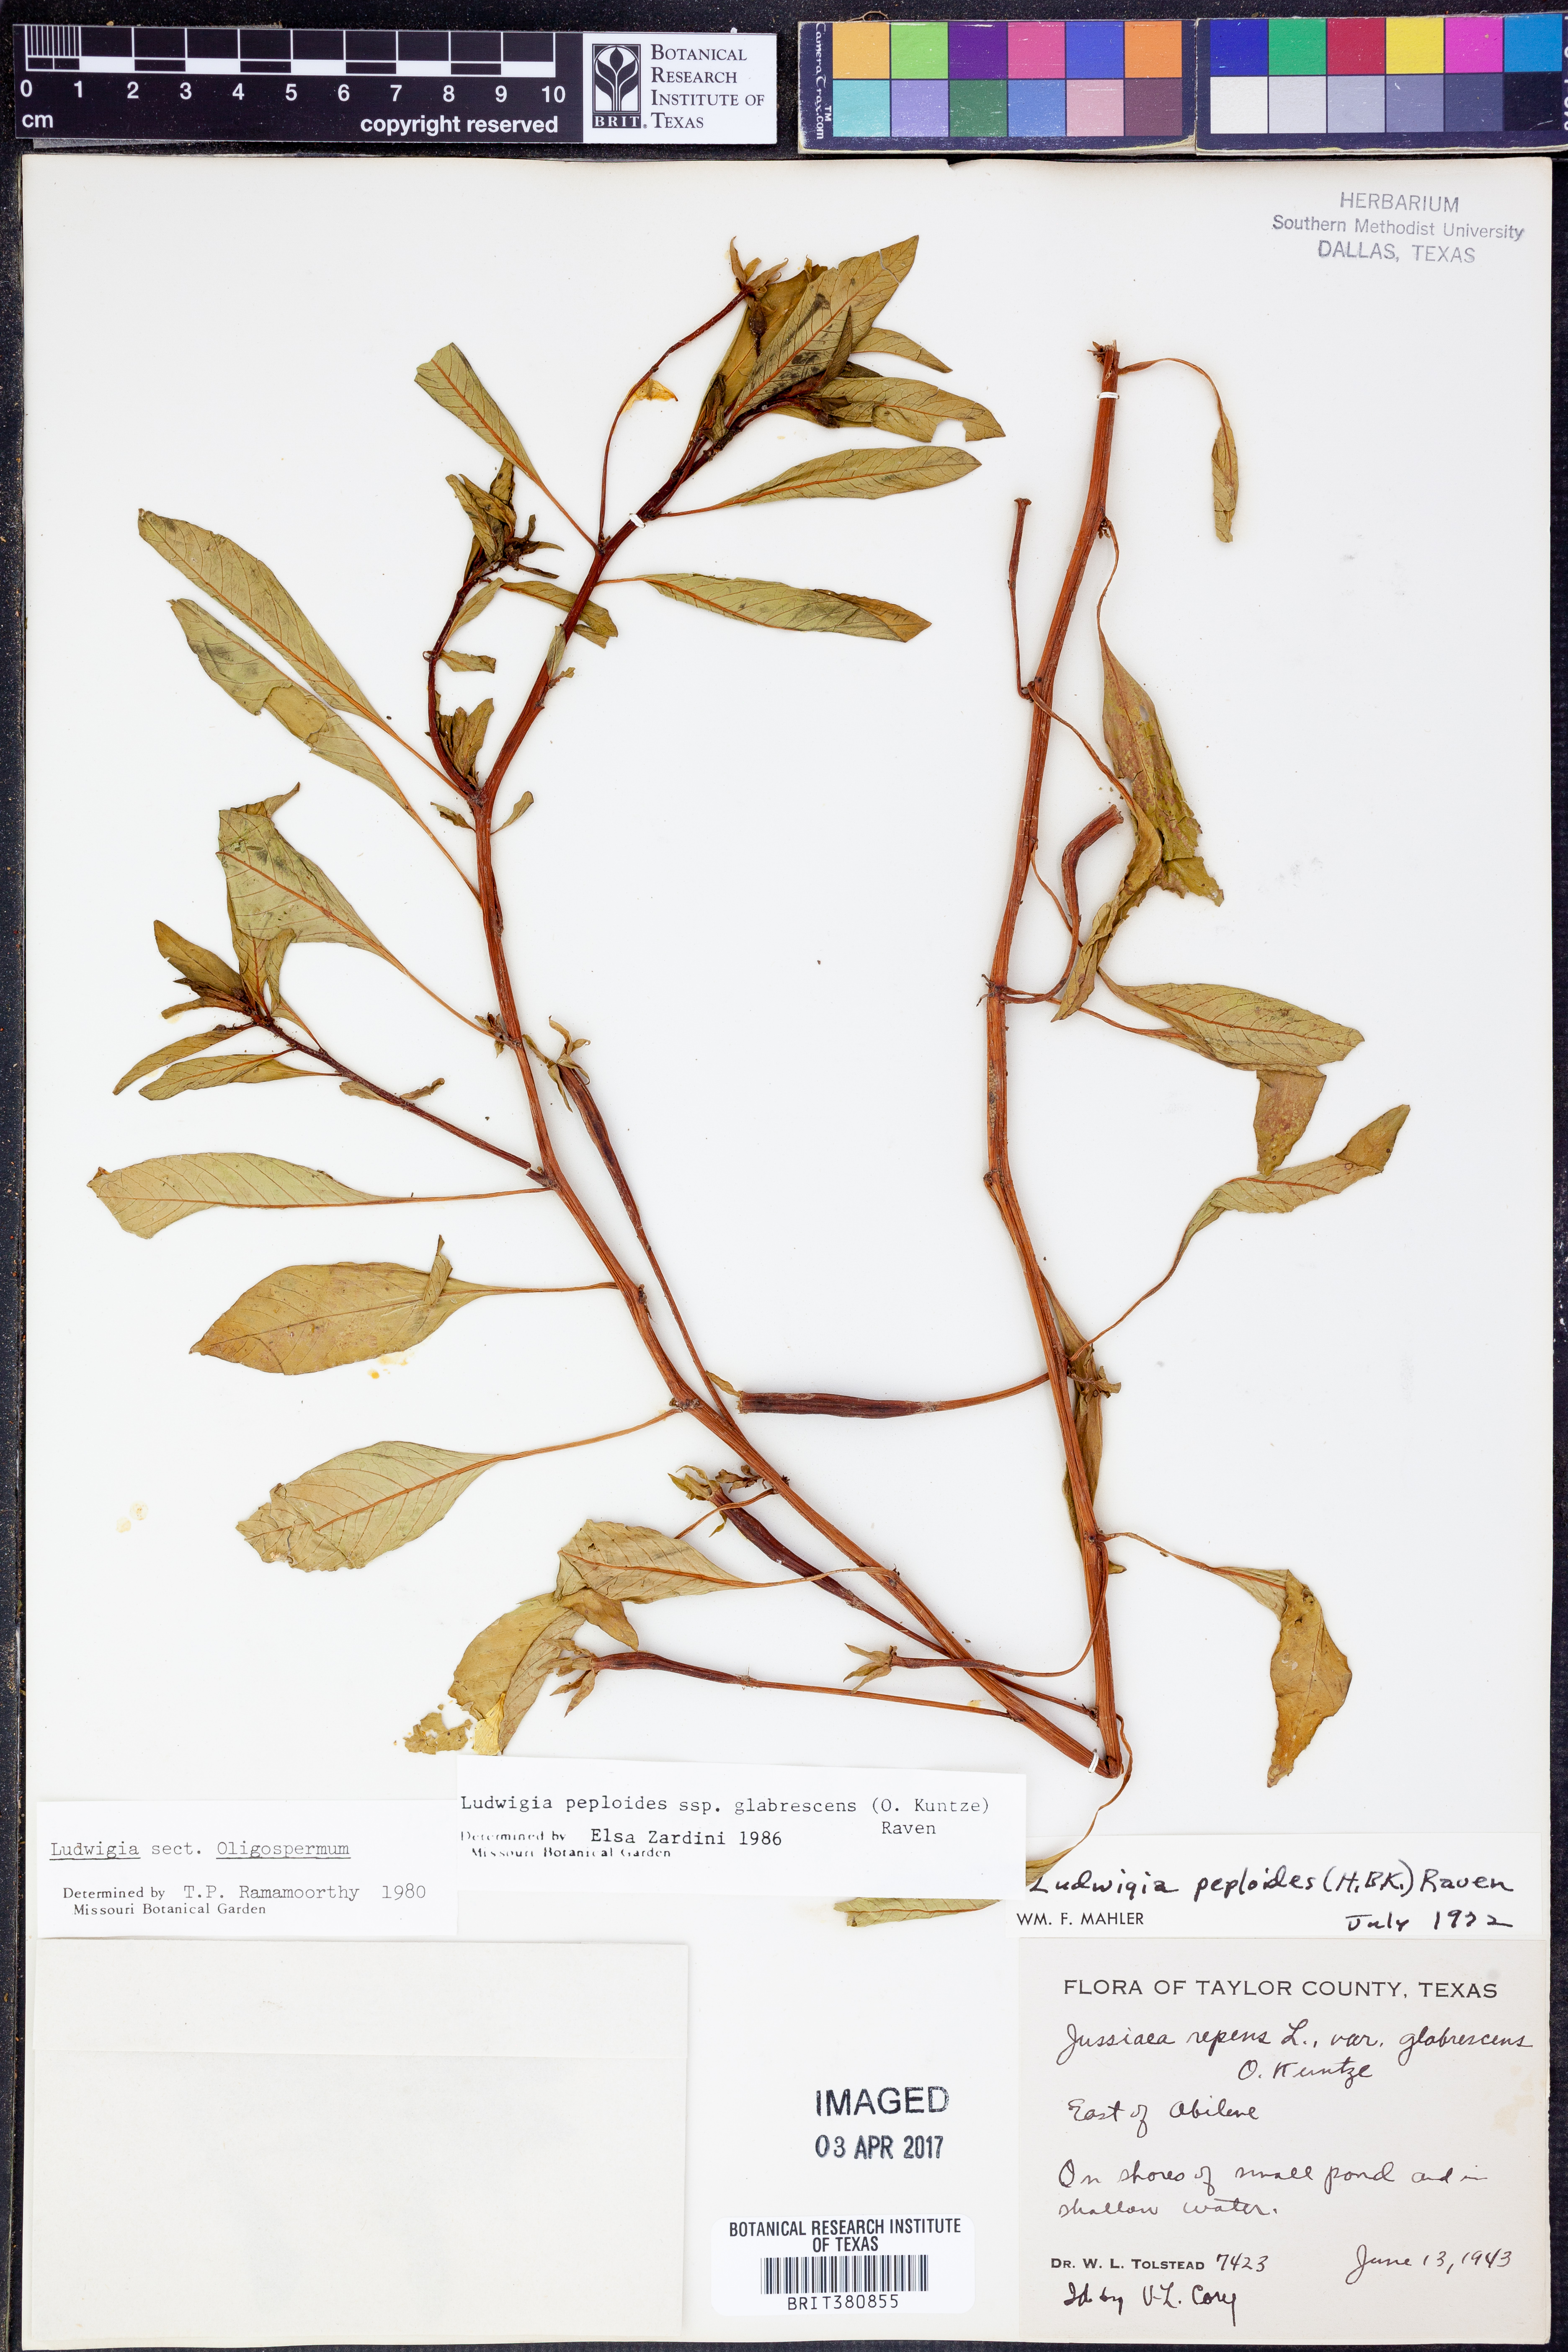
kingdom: Plantae
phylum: Tracheophyta
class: Magnoliopsida
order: Myrtales
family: Onagraceae
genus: Ludwigia
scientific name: Ludwigia peploides
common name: Floating primrose-willow
